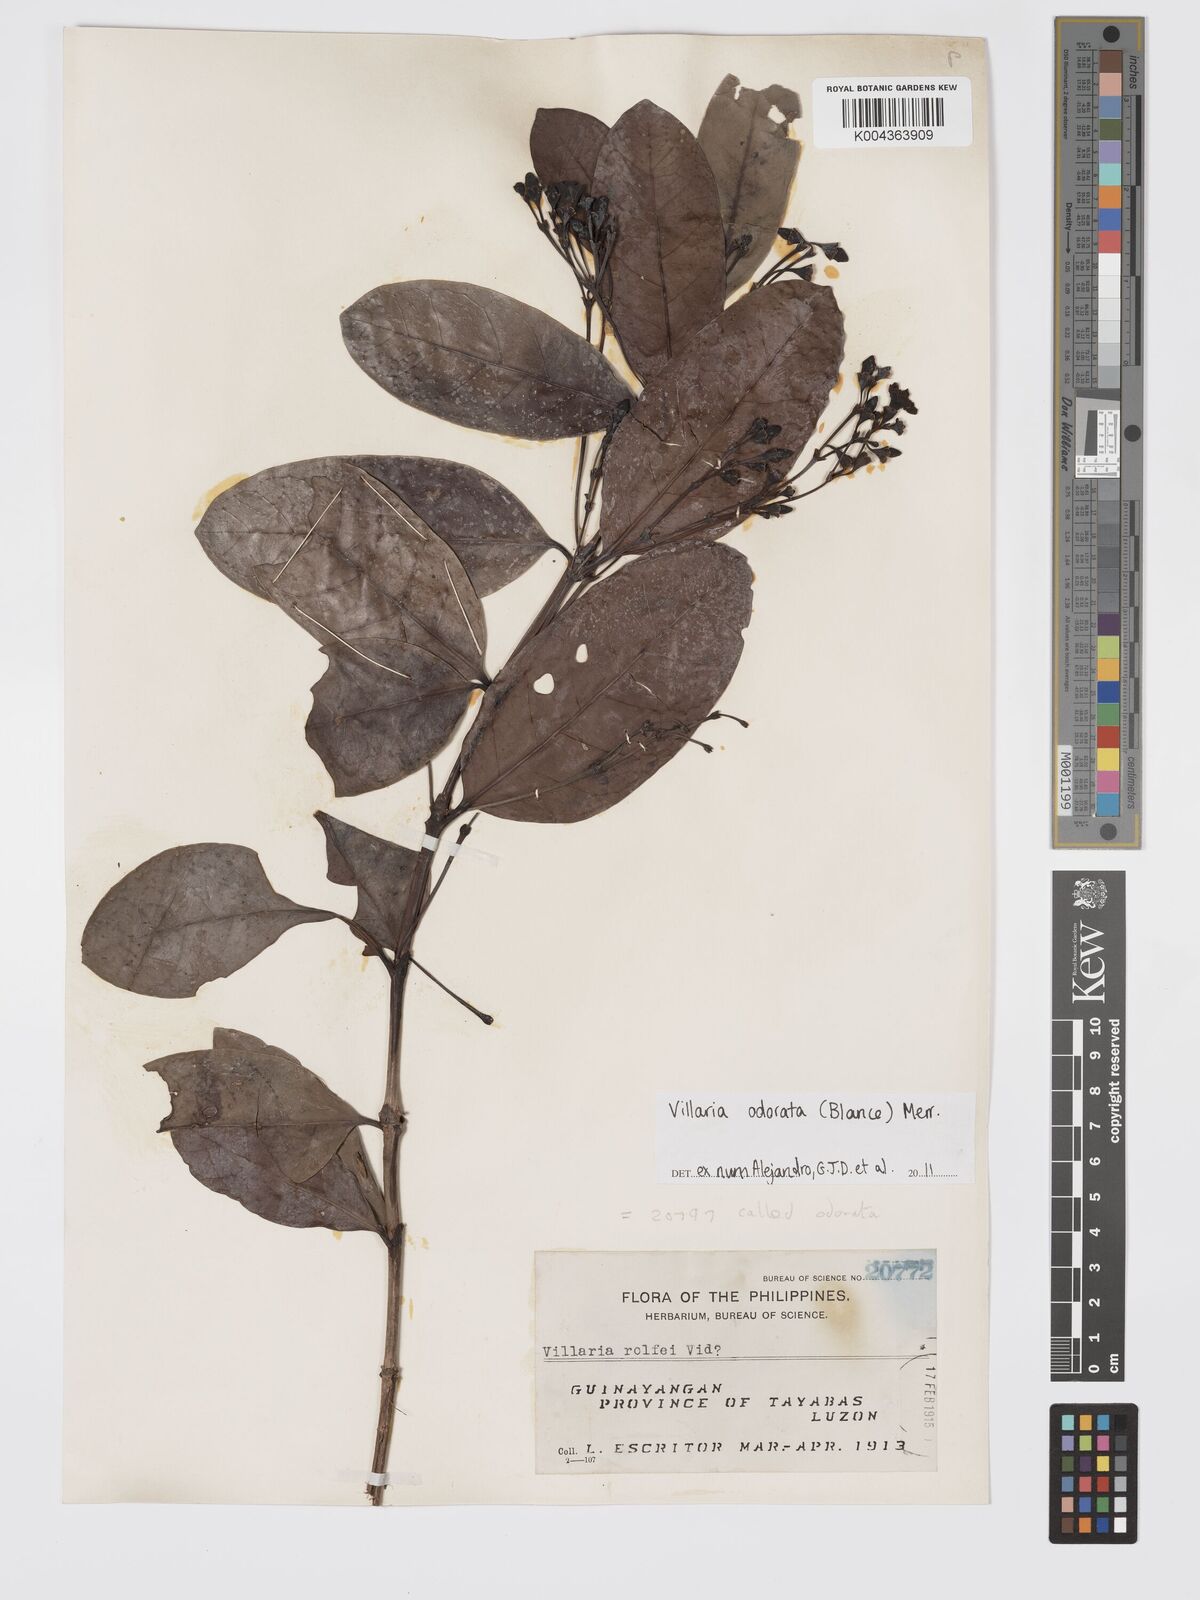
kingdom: Plantae
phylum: Tracheophyta
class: Magnoliopsida
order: Gentianales
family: Rubiaceae
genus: Villaria
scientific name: Villaria odorata
